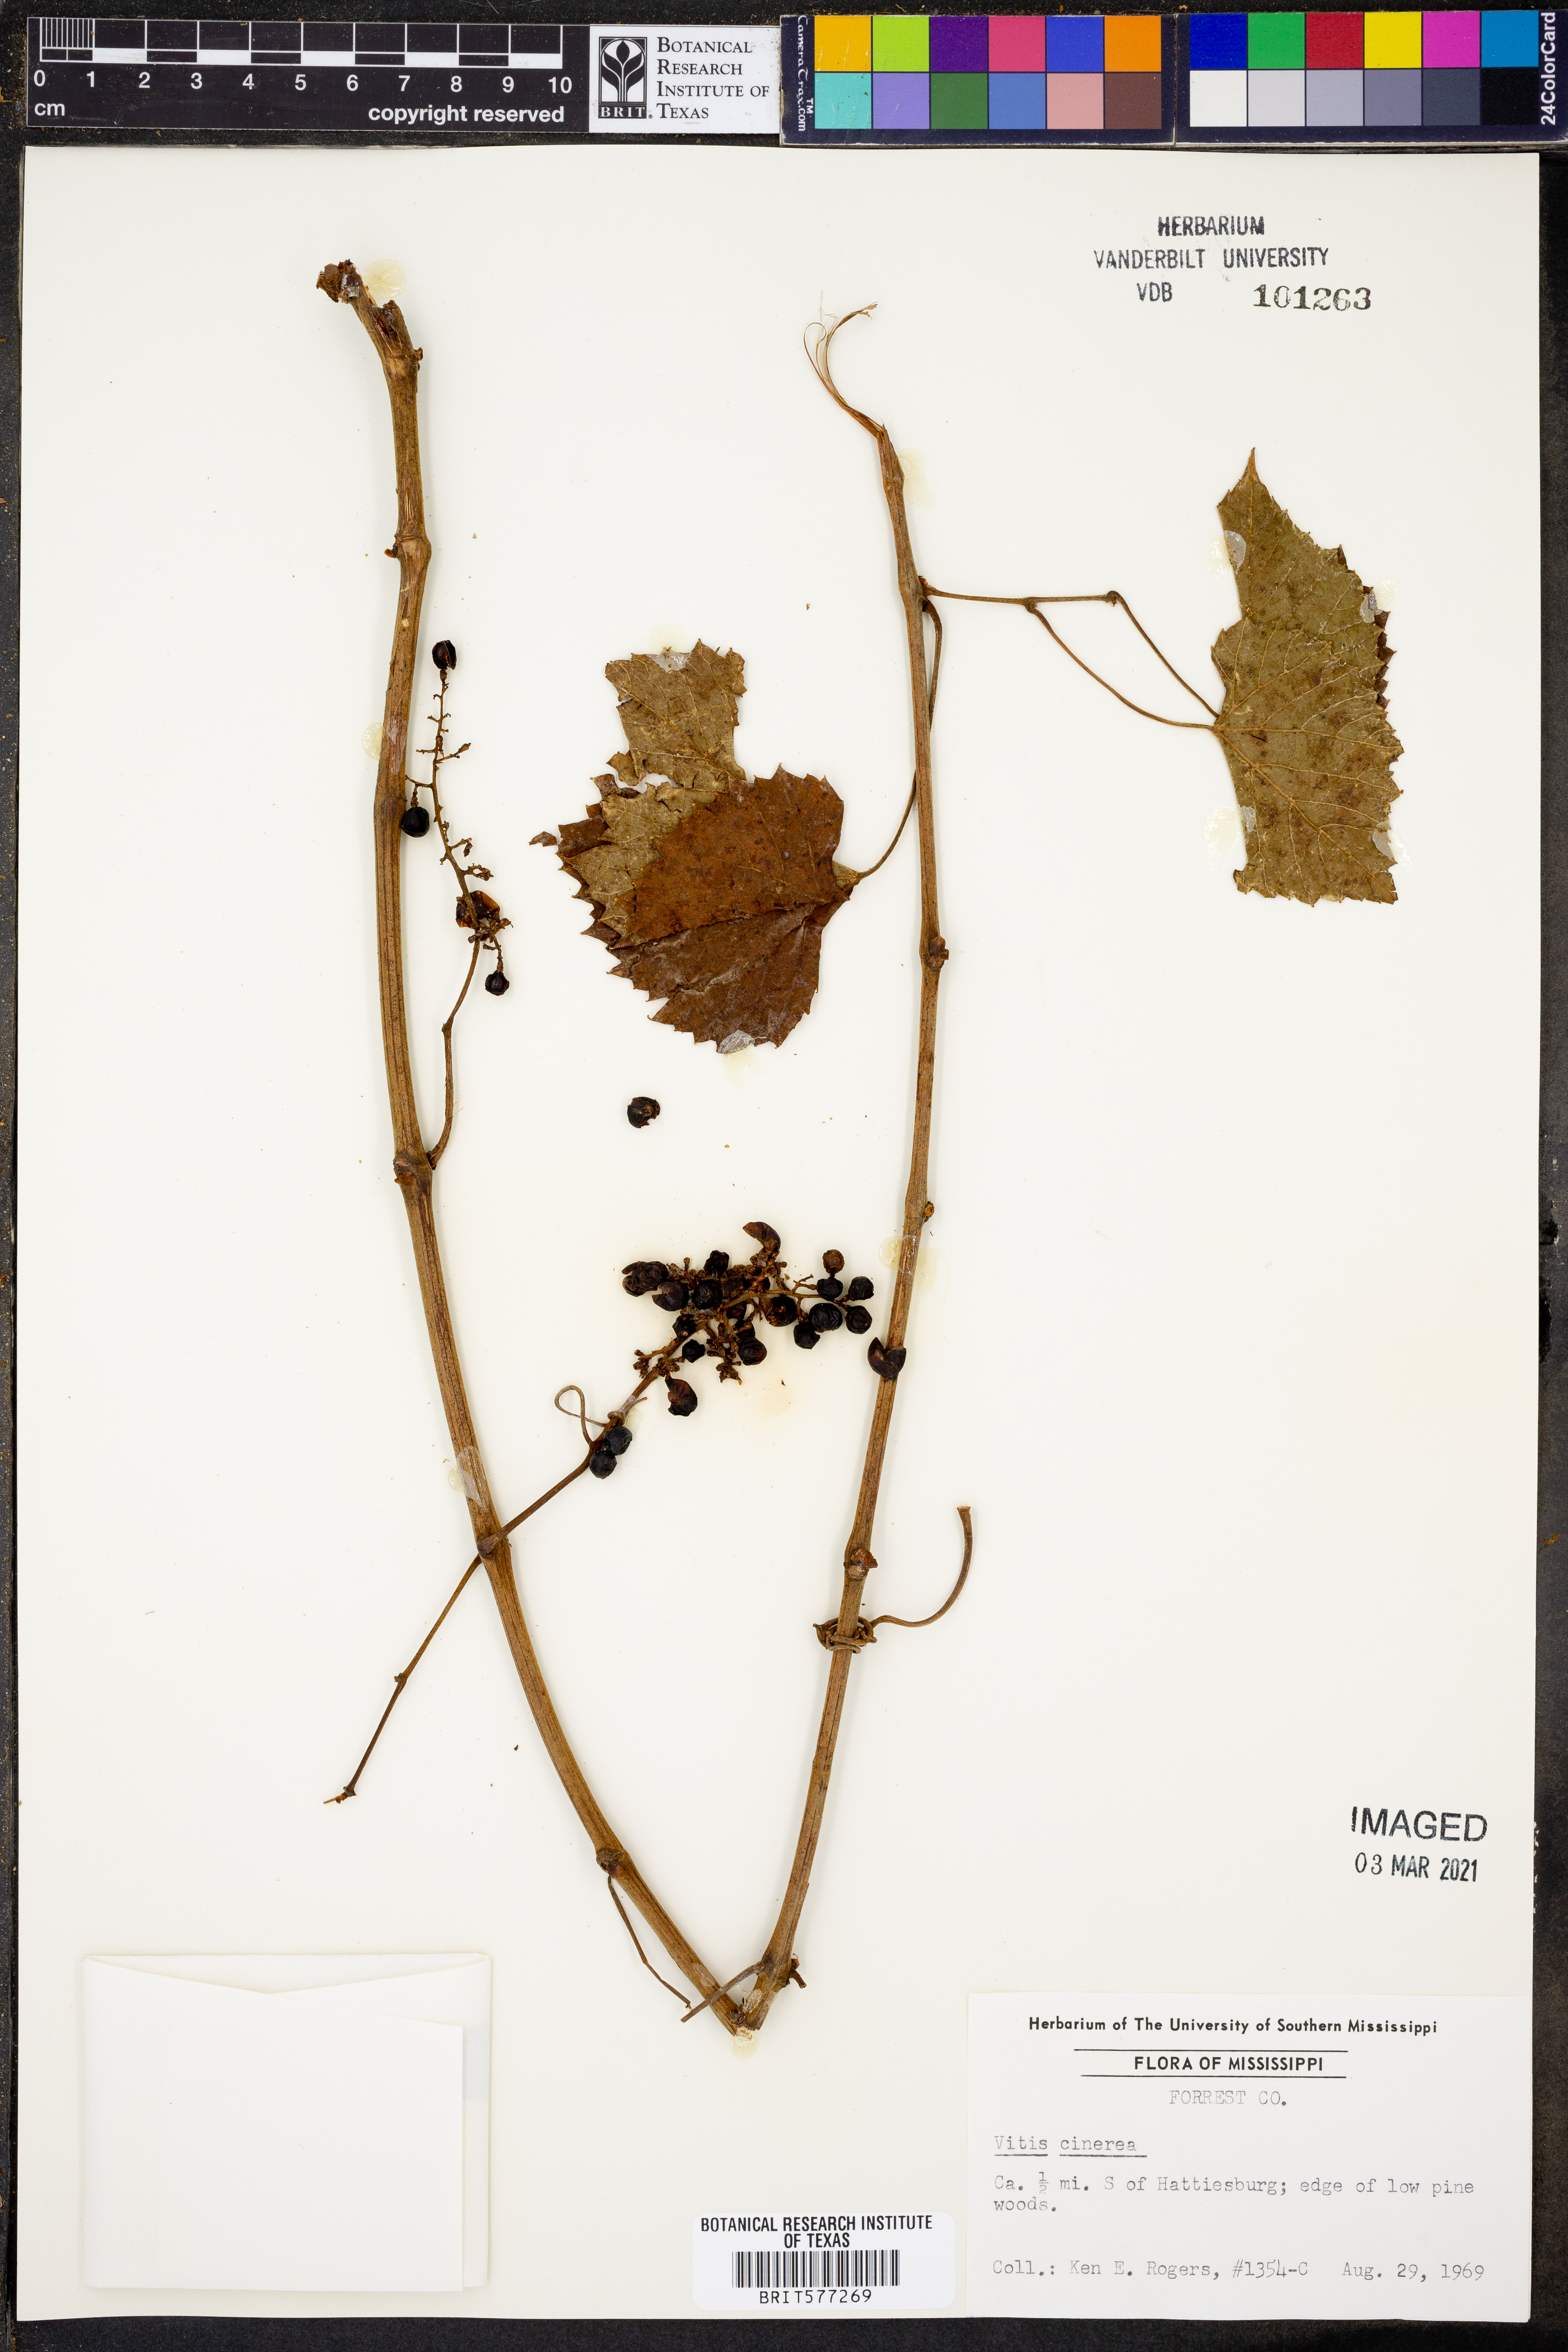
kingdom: Plantae
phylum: Tracheophyta
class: Magnoliopsida
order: Vitales
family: Vitaceae
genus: Vitis
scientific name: Vitis cinerea
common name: Ashy grape
